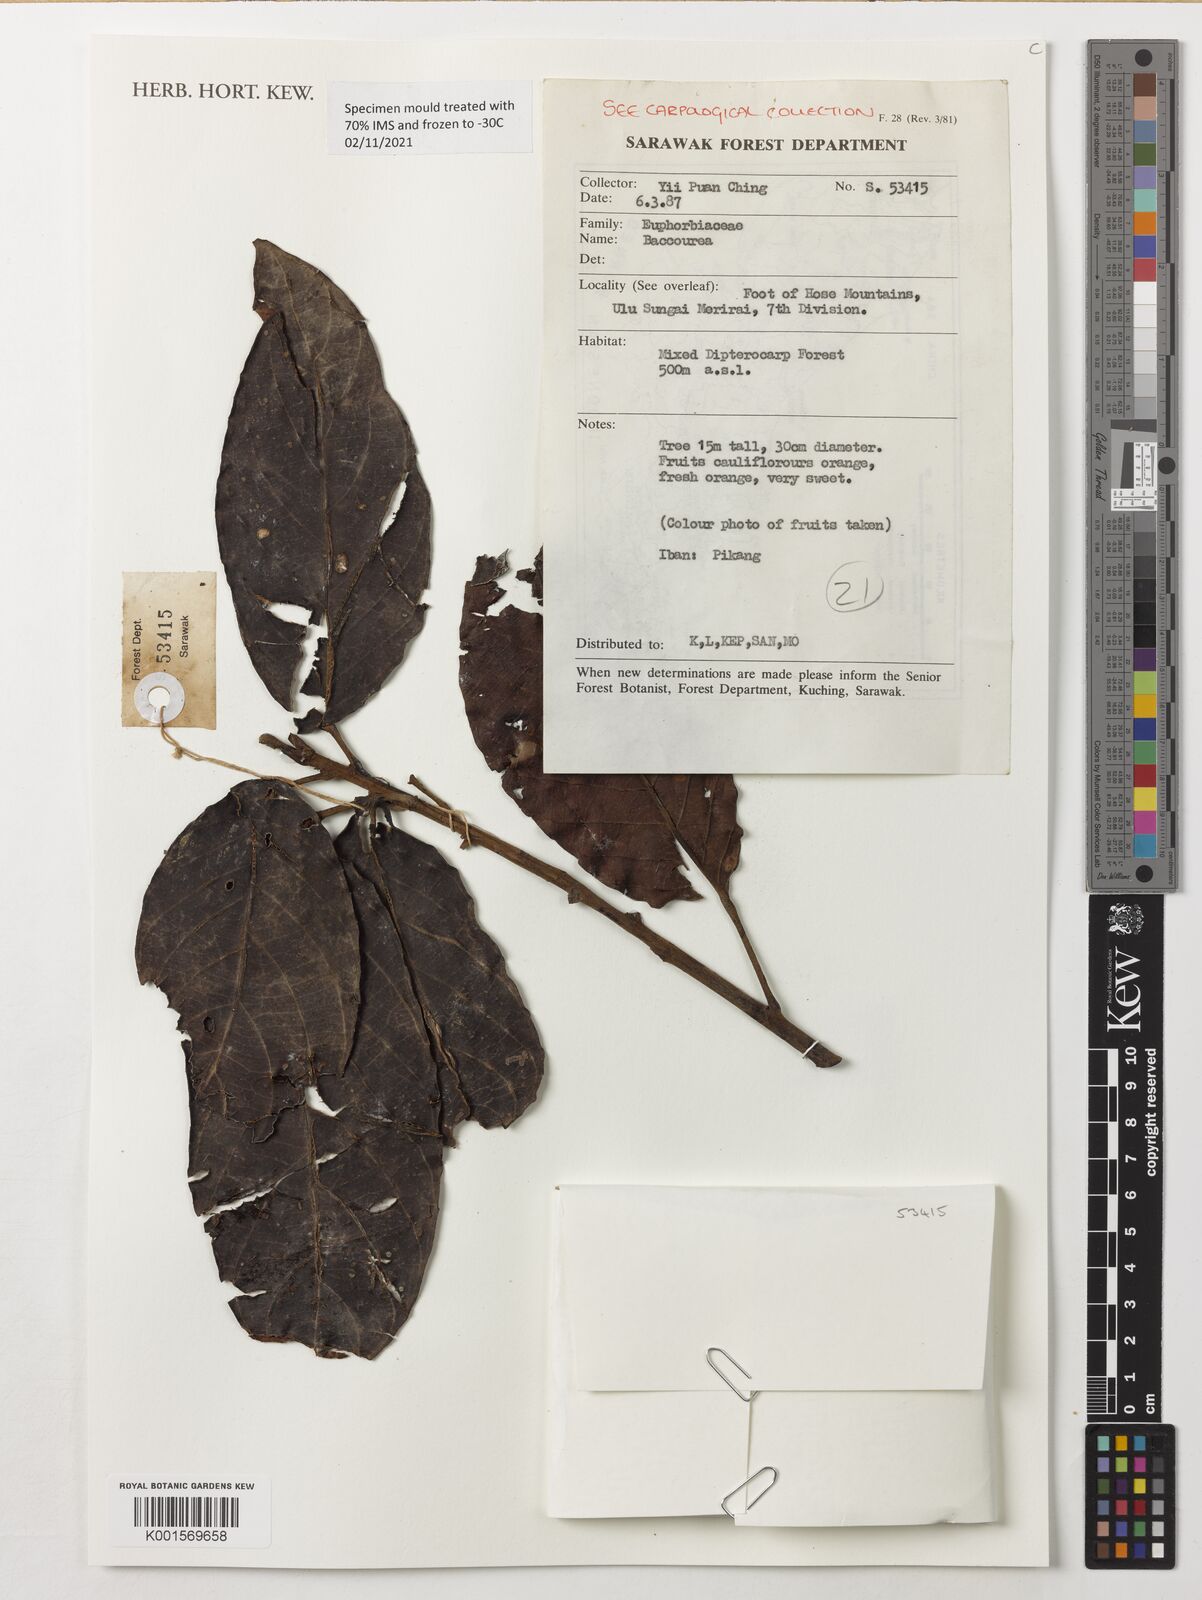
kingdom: Plantae
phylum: Tracheophyta
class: Magnoliopsida
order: Malpighiales
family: Phyllanthaceae
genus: Baccaurea
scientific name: Baccaurea
